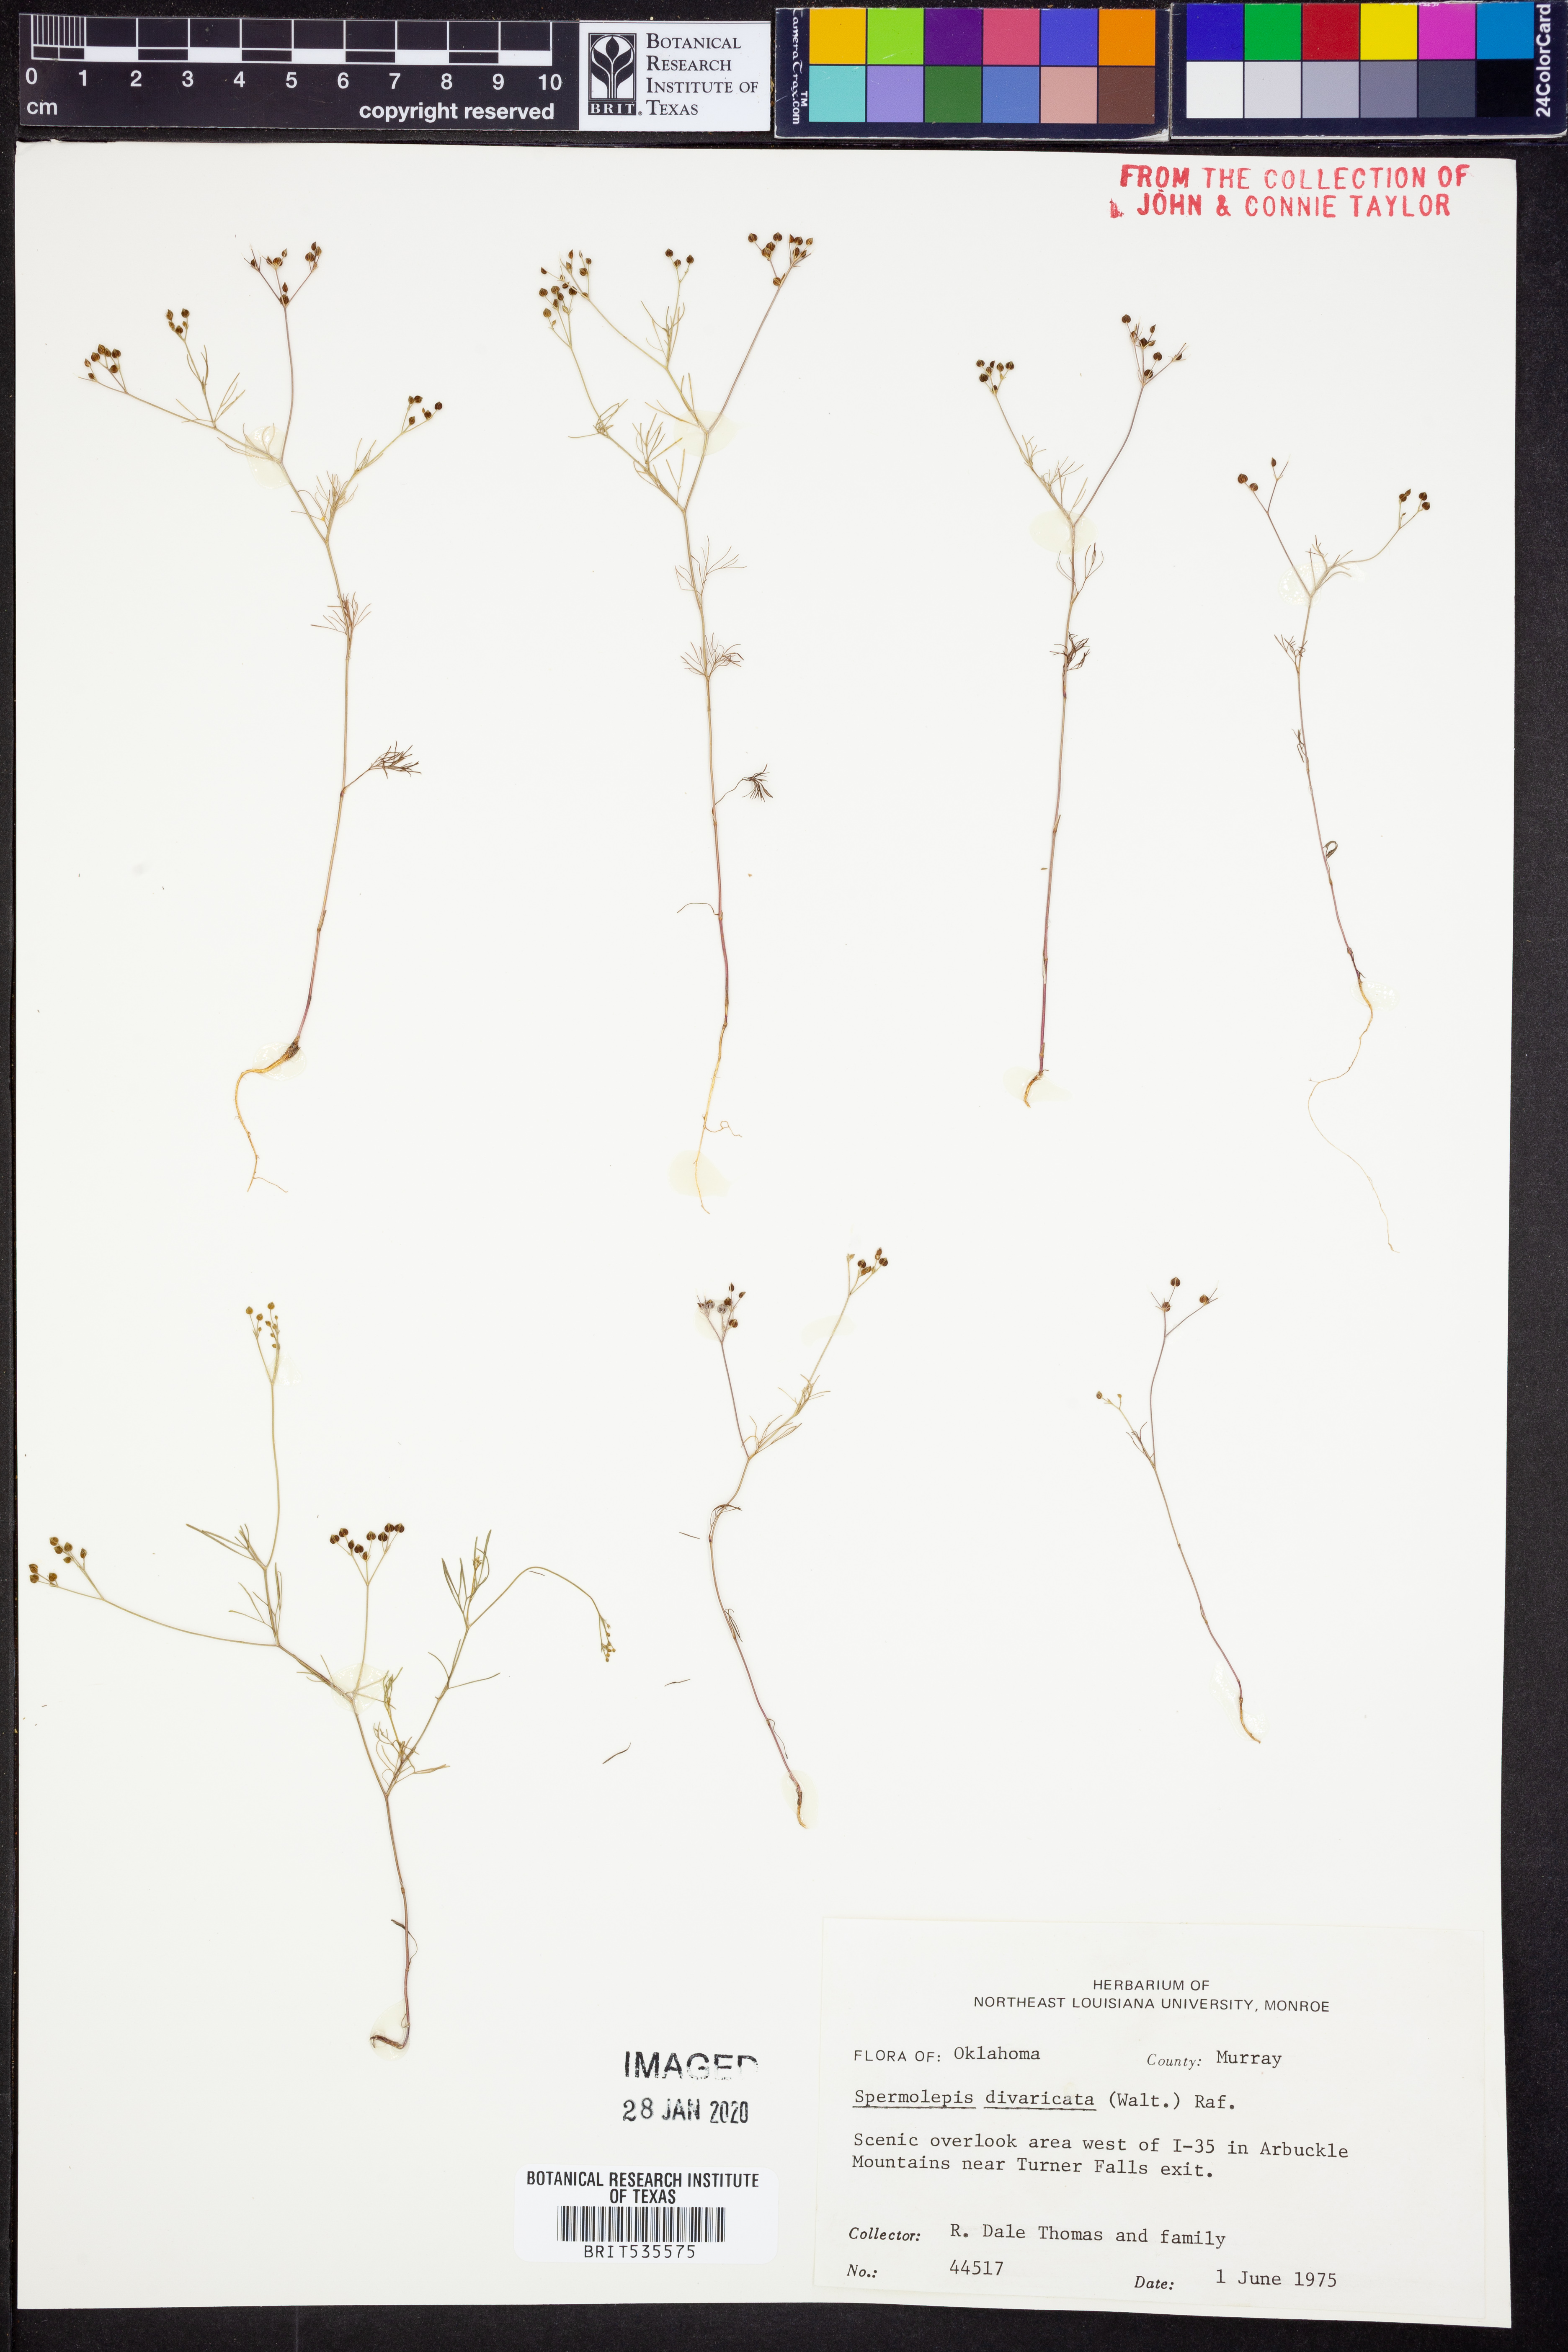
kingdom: Plantae
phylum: Tracheophyta
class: Magnoliopsida
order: Apiales
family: Apiaceae
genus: Spermolepis
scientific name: Spermolepis divaricata
